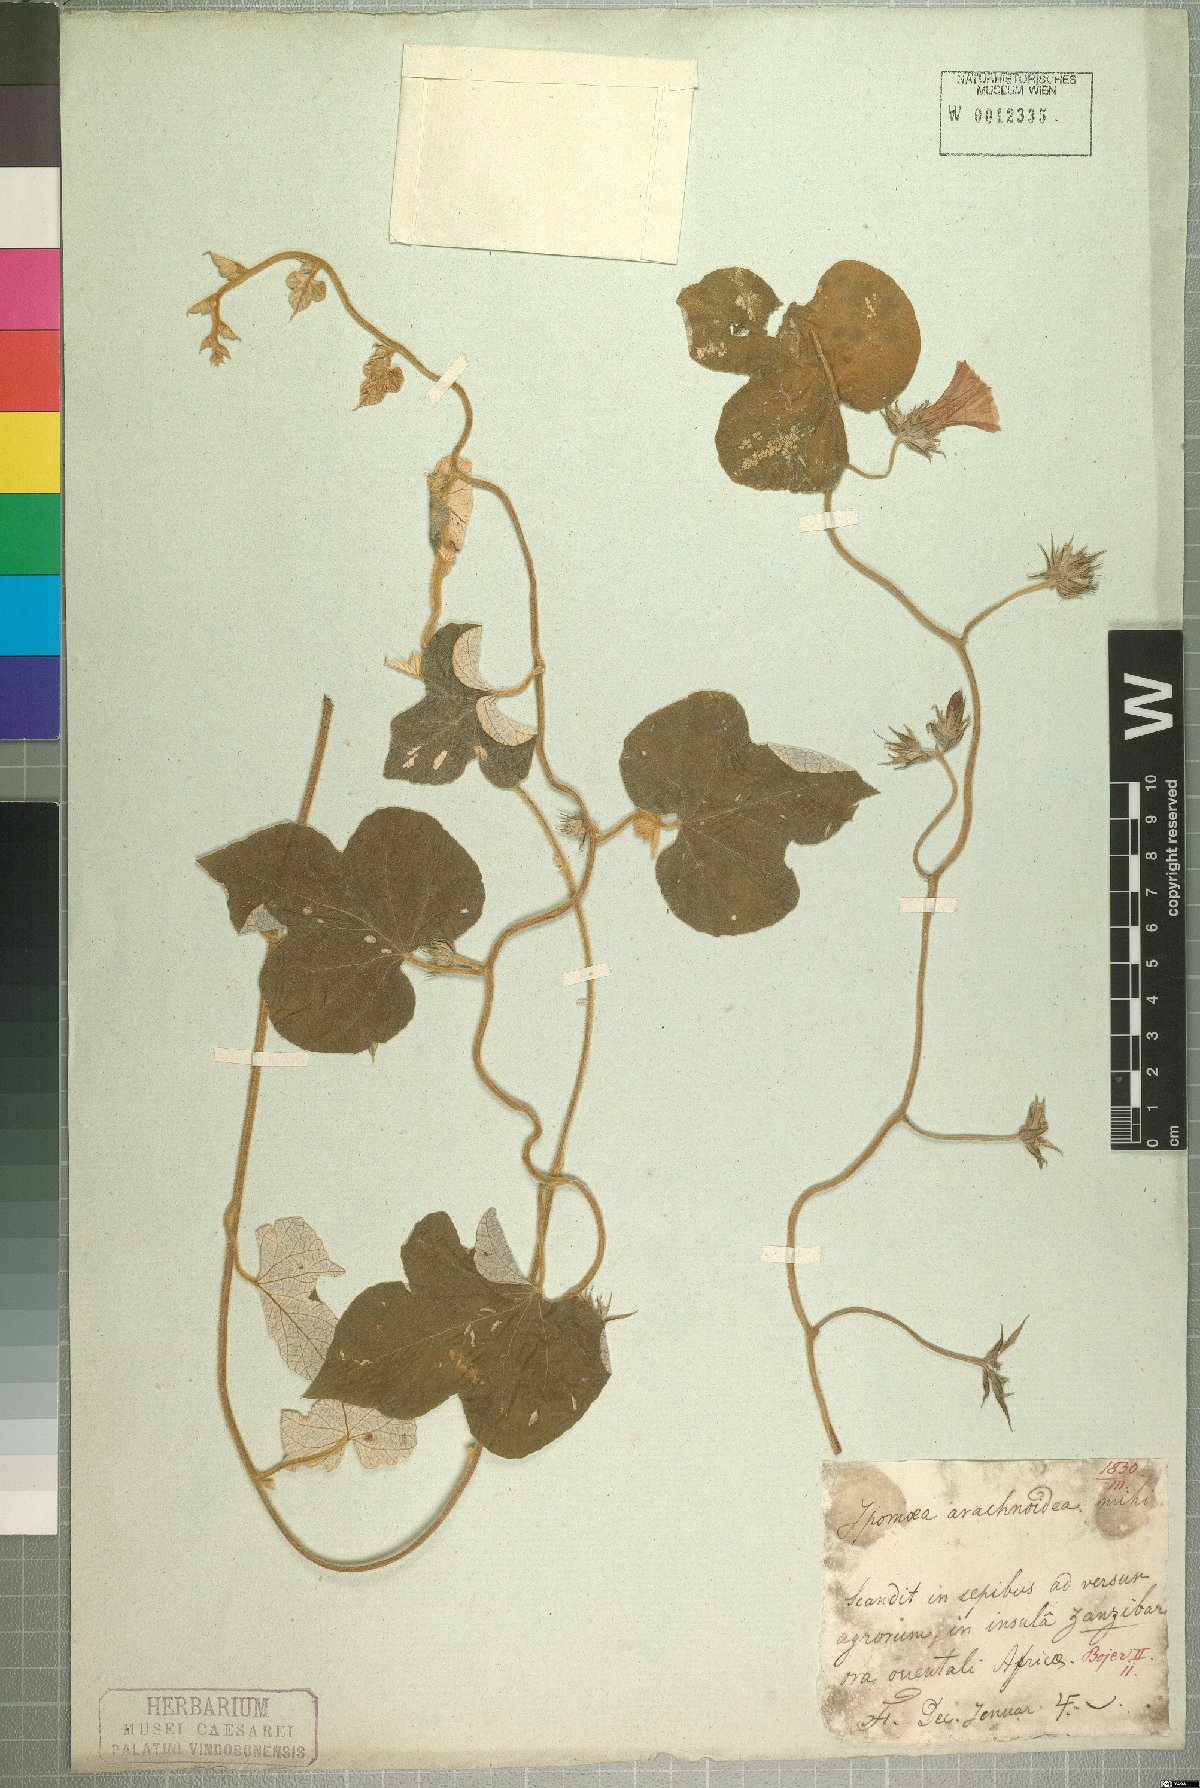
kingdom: Plantae
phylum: Tracheophyta
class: Magnoliopsida
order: Solanales
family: Convolvulaceae
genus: Ipomoea
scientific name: Ipomoea wightii
